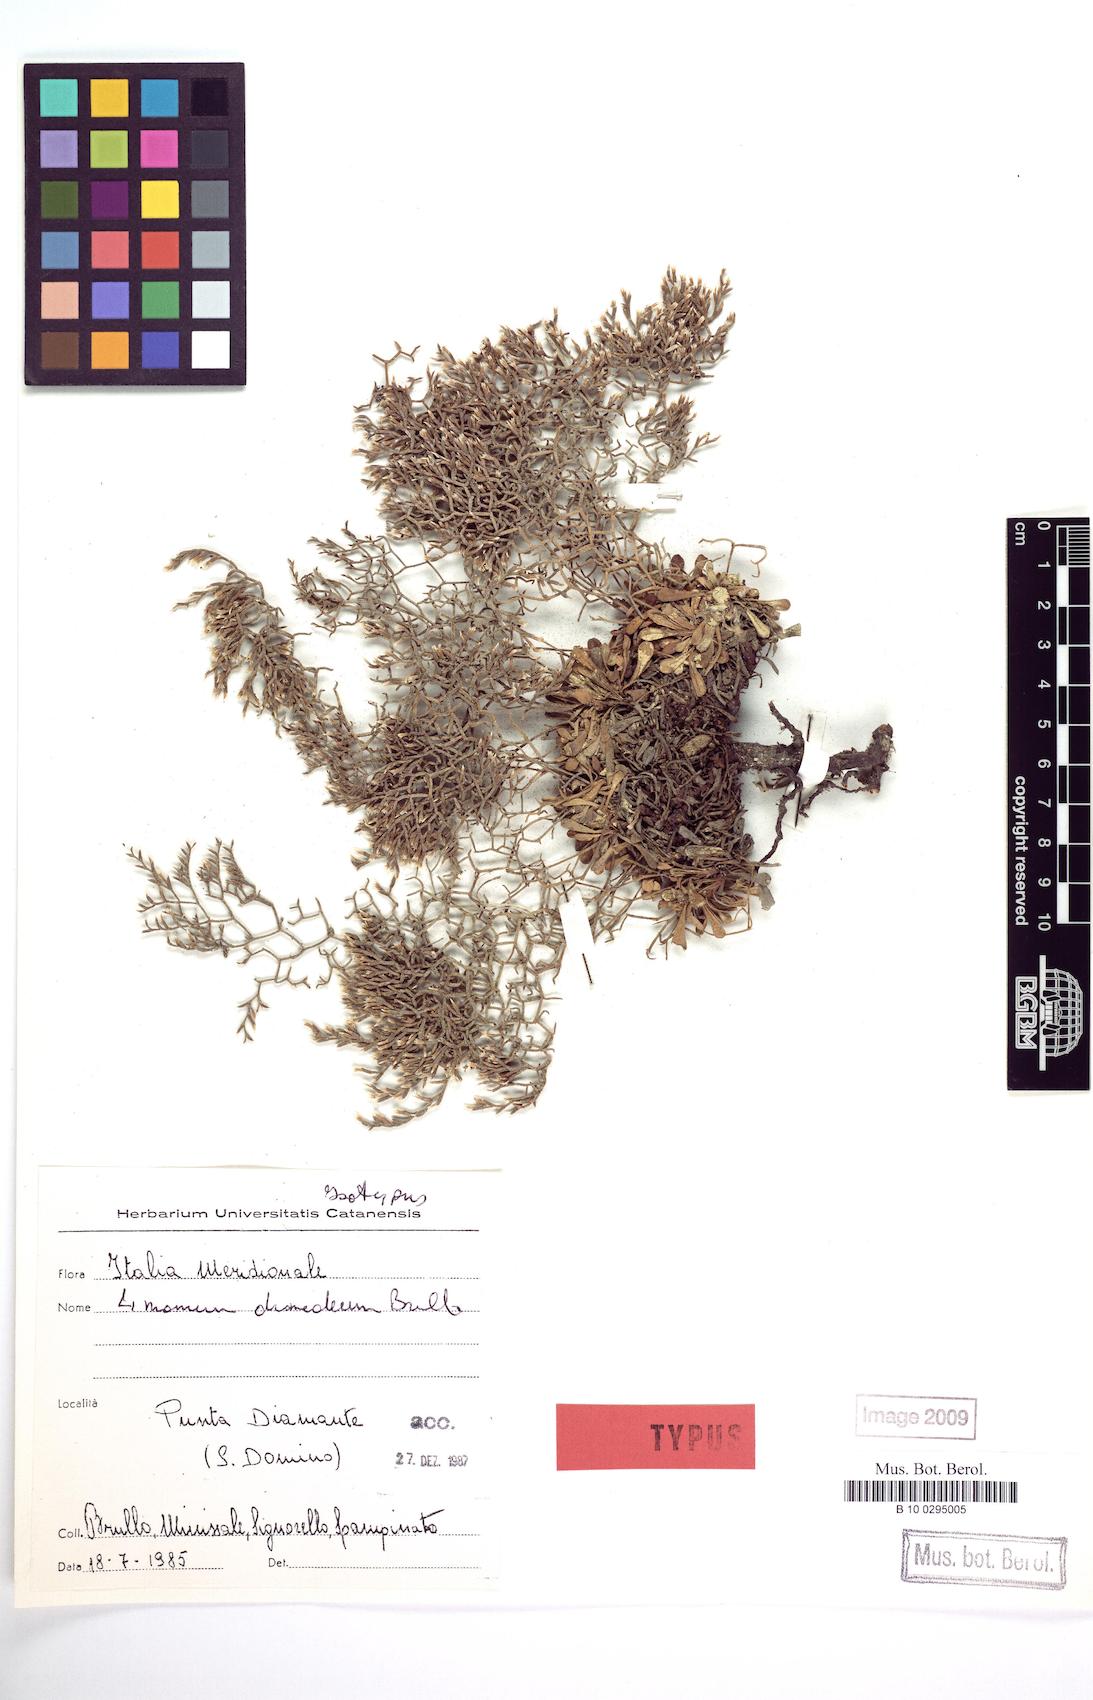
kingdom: Plantae
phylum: Tracheophyta
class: Magnoliopsida
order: Caryophyllales
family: Plumbaginaceae
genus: Limonium
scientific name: Limonium diomedeum
